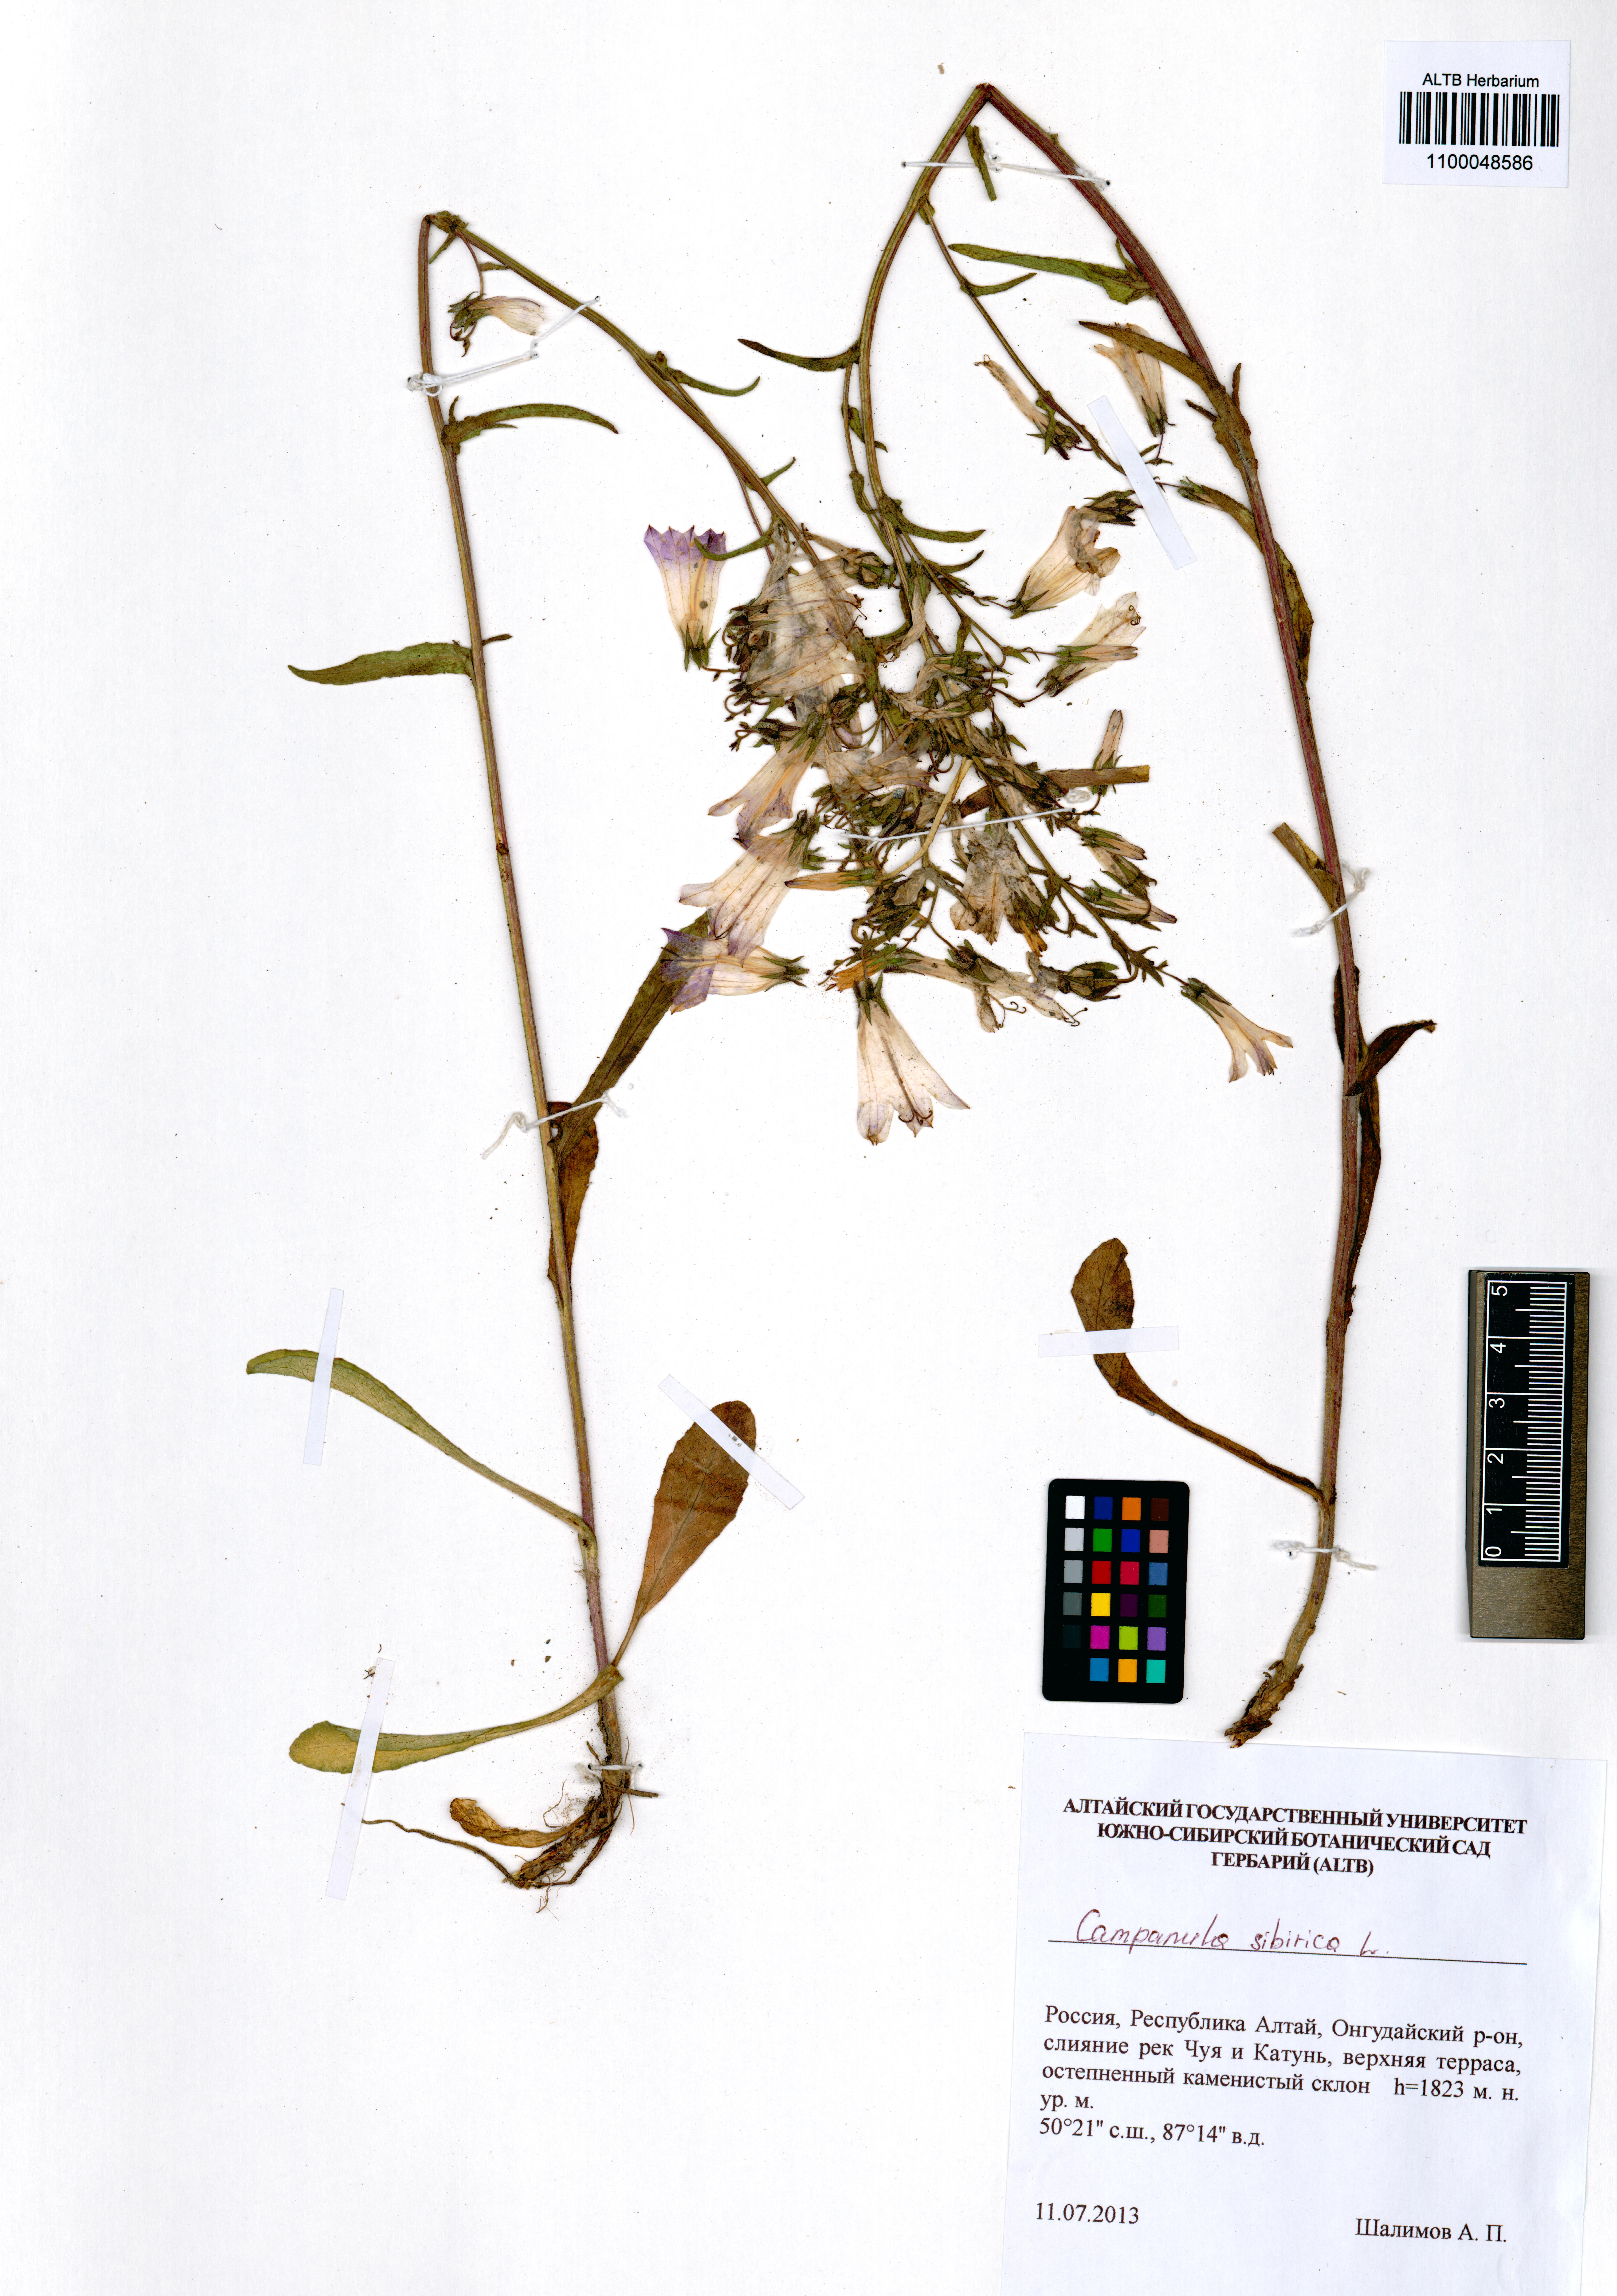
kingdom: Plantae
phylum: Tracheophyta
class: Magnoliopsida
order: Asterales
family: Campanulaceae
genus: Campanula
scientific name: Campanula sibirica
